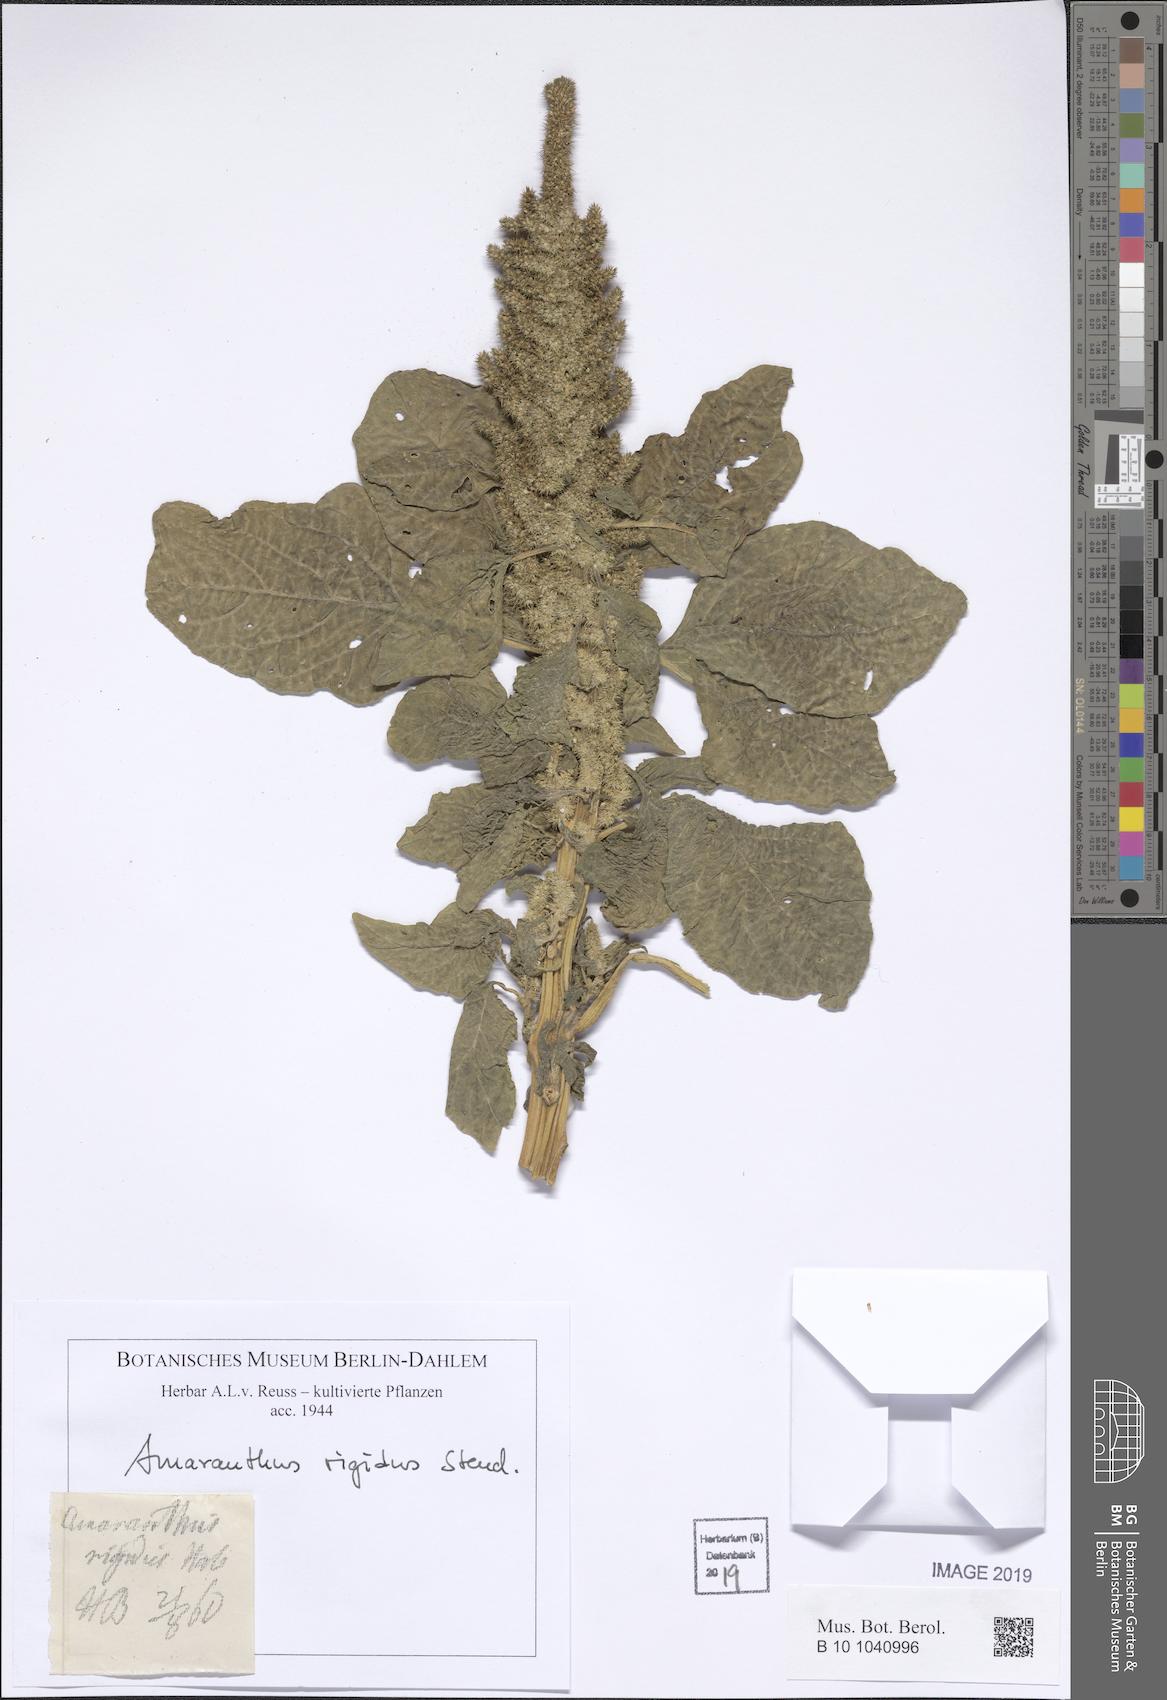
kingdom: Plantae
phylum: Tracheophyta
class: Magnoliopsida
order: Caryophyllales
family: Amaranthaceae
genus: Amaranthus
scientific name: Amaranthus retroflexus
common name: Redroot amaranth
